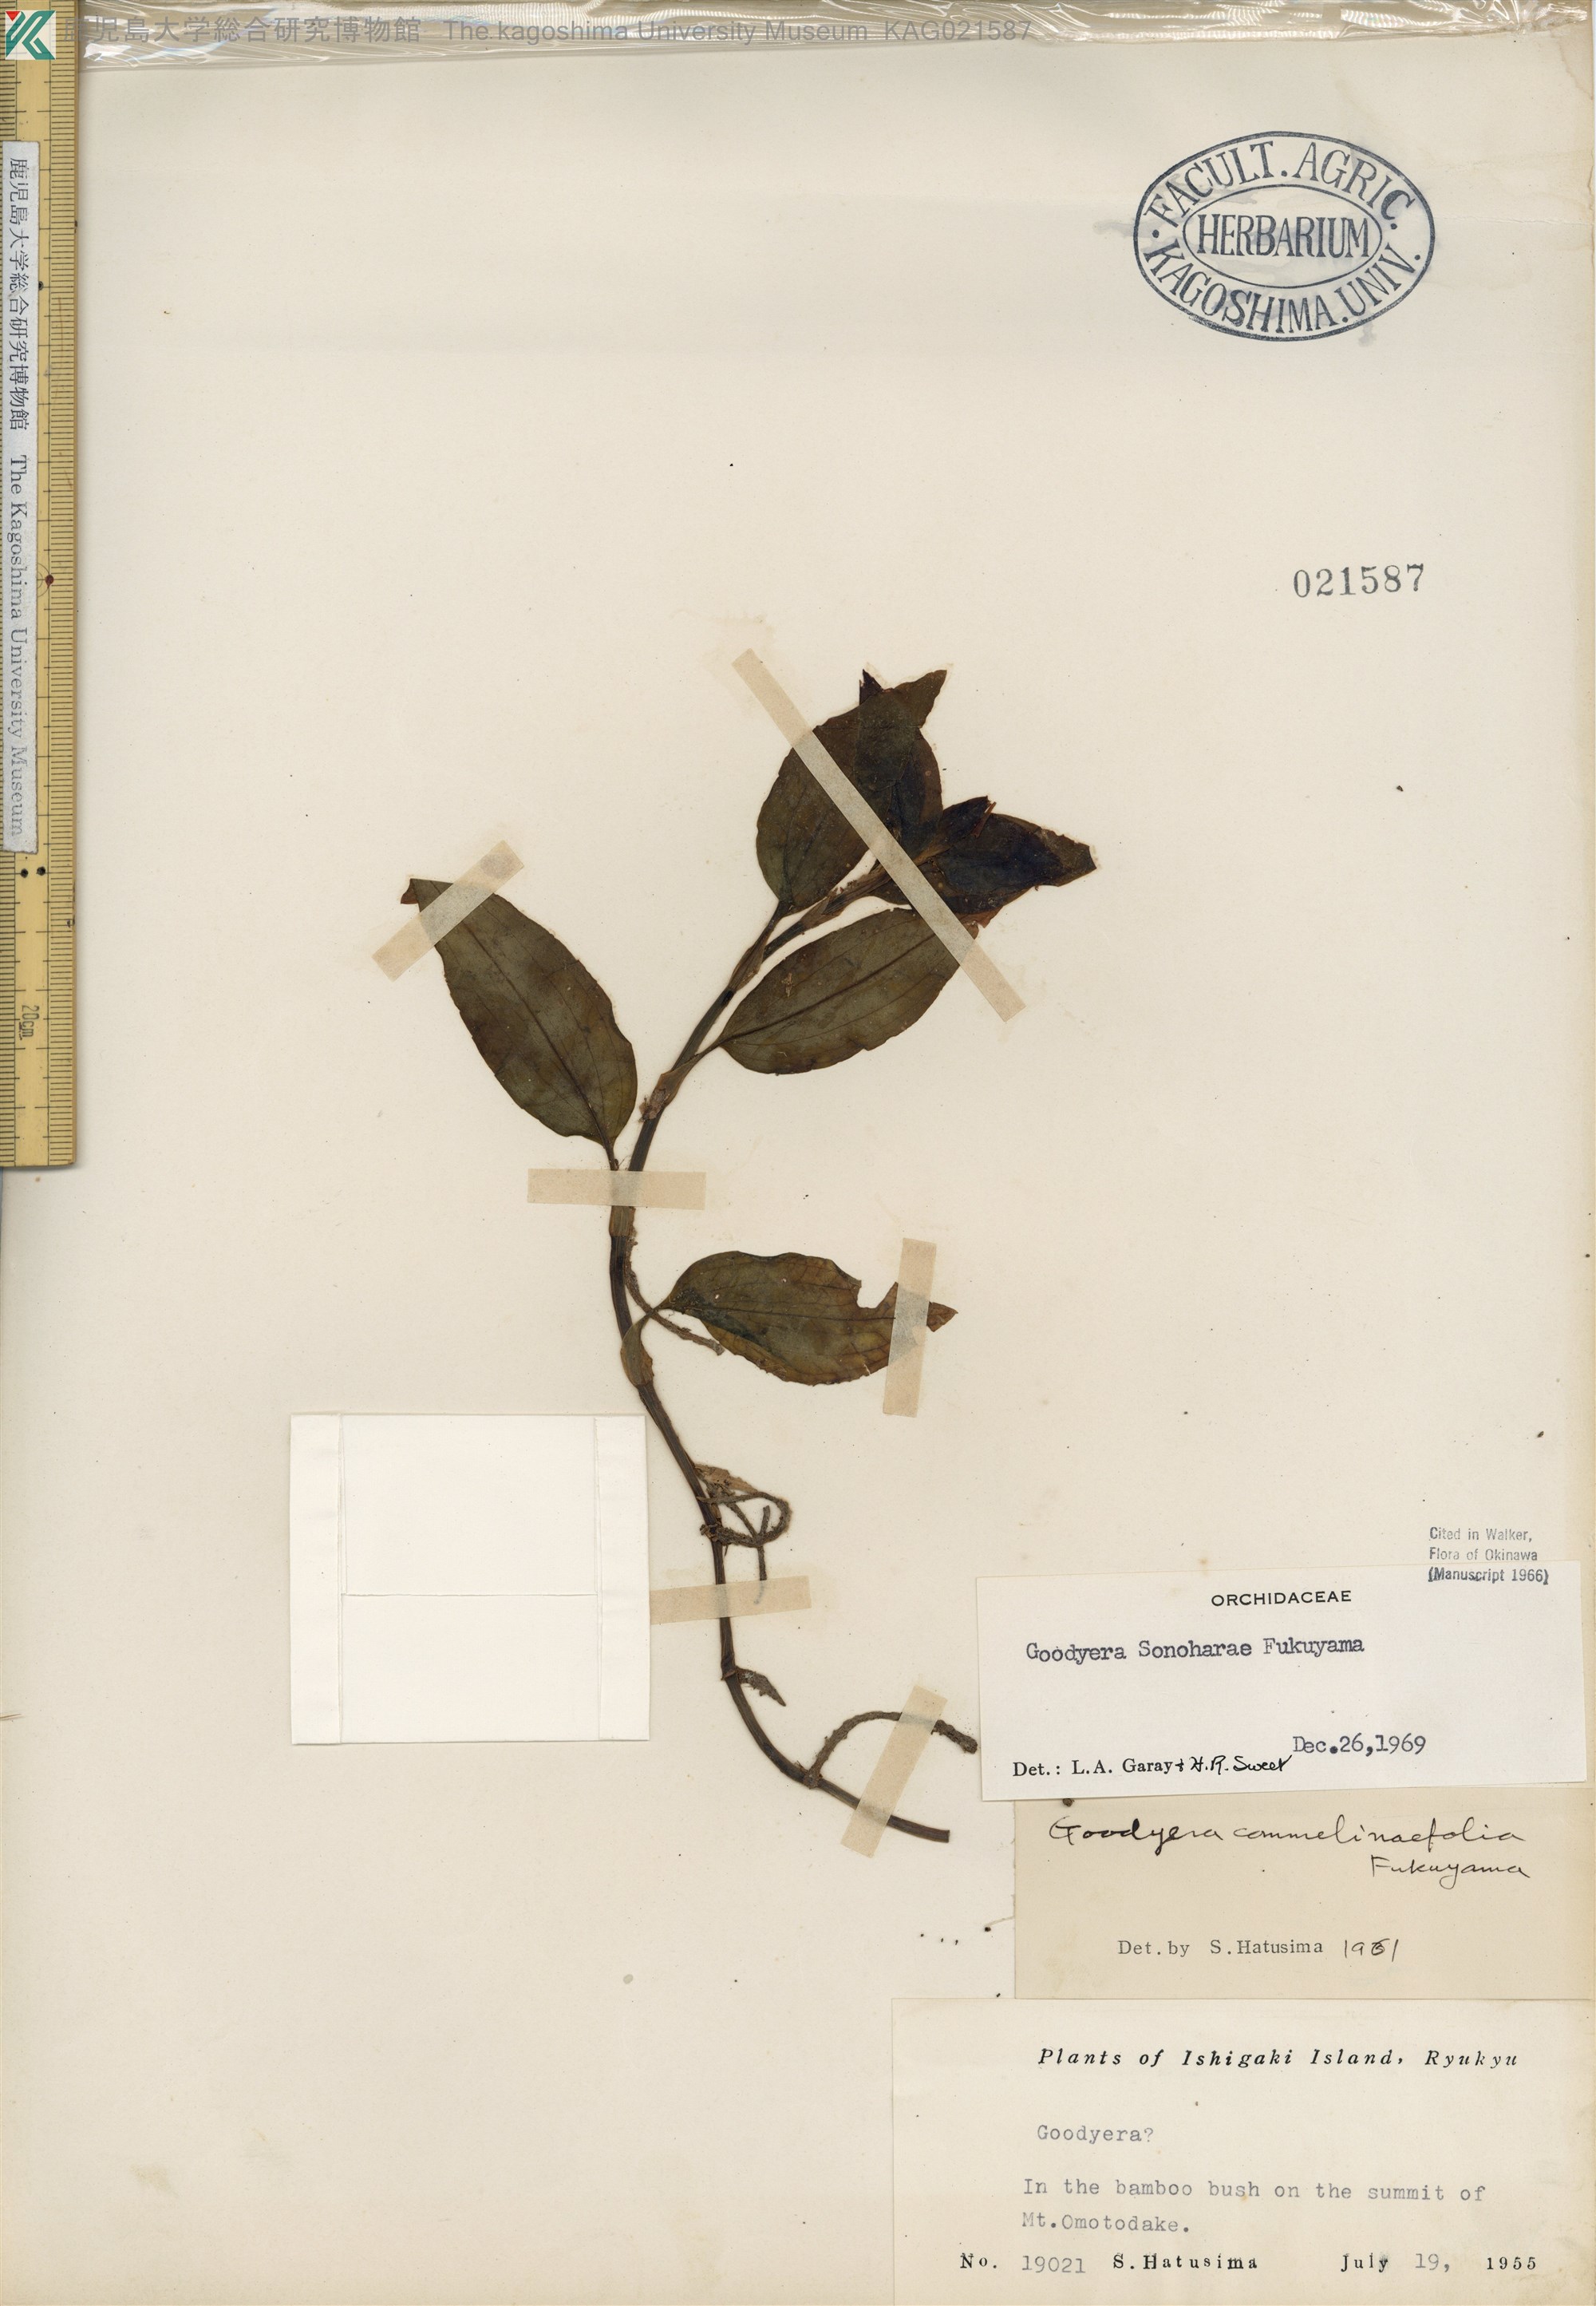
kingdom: Plantae
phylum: Tracheophyta
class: Liliopsida
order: Asparagales
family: Orchidaceae
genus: Goodyera
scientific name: Goodyera foliosa
